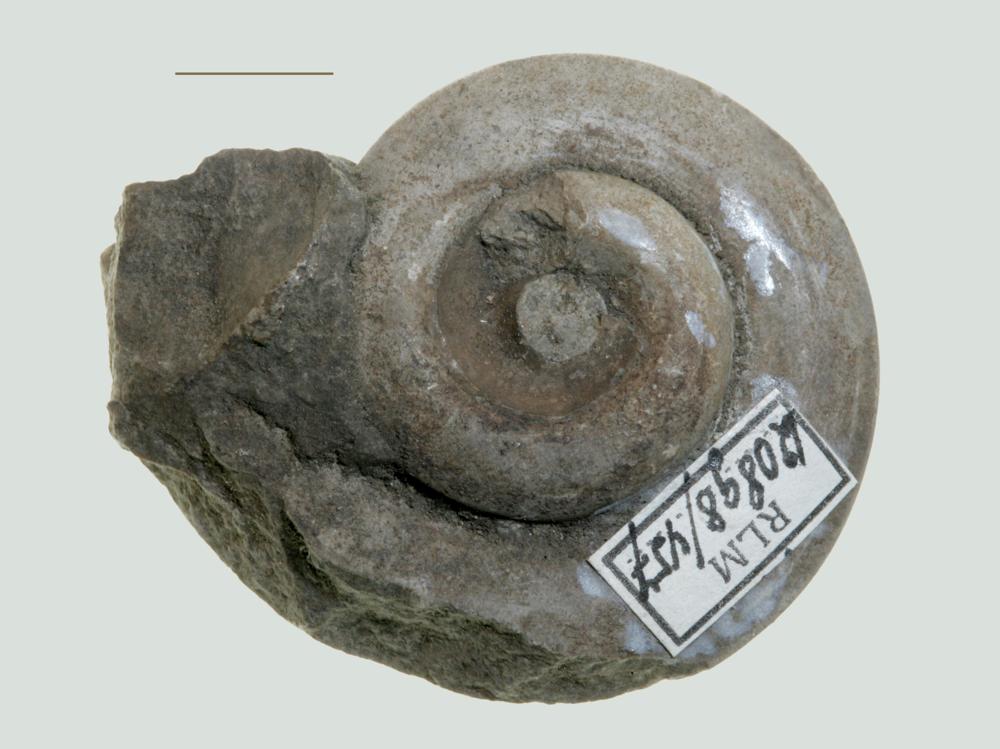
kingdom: Animalia
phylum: Mollusca
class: Gastropoda
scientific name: Gastropoda
